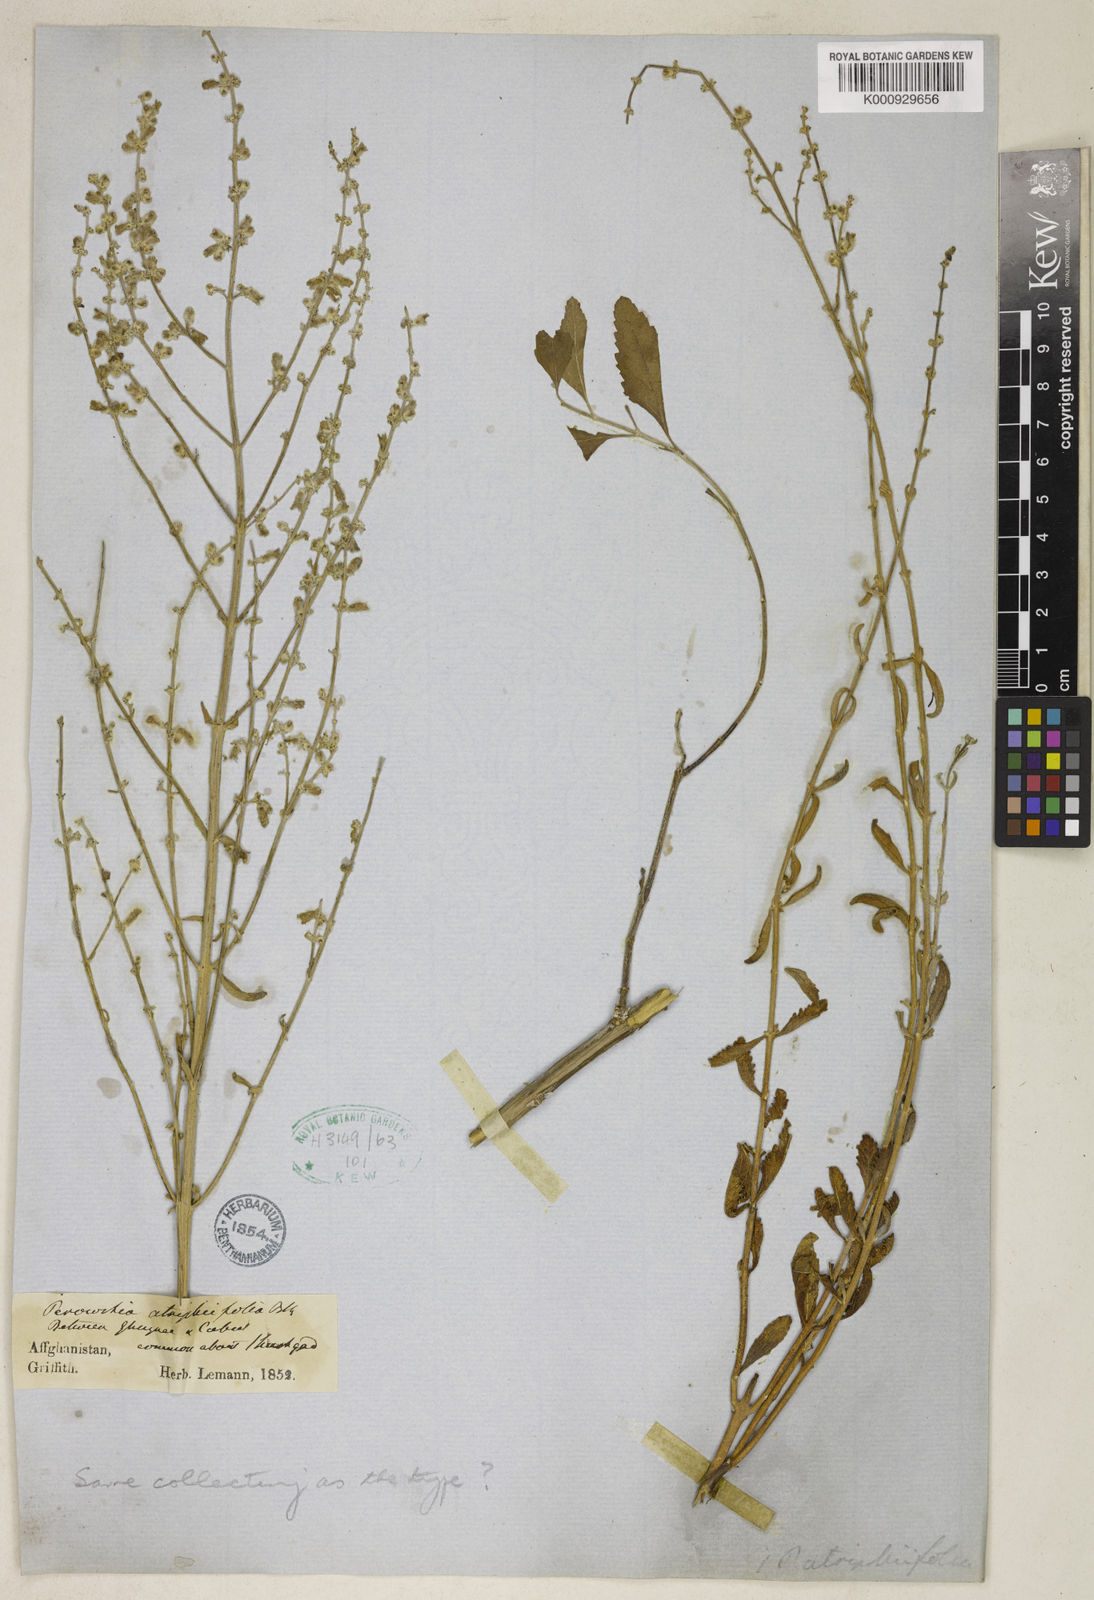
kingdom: Plantae
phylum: Tracheophyta
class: Magnoliopsida
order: Lamiales
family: Lamiaceae
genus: Salvia
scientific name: Salvia yangii
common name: Russian sage
